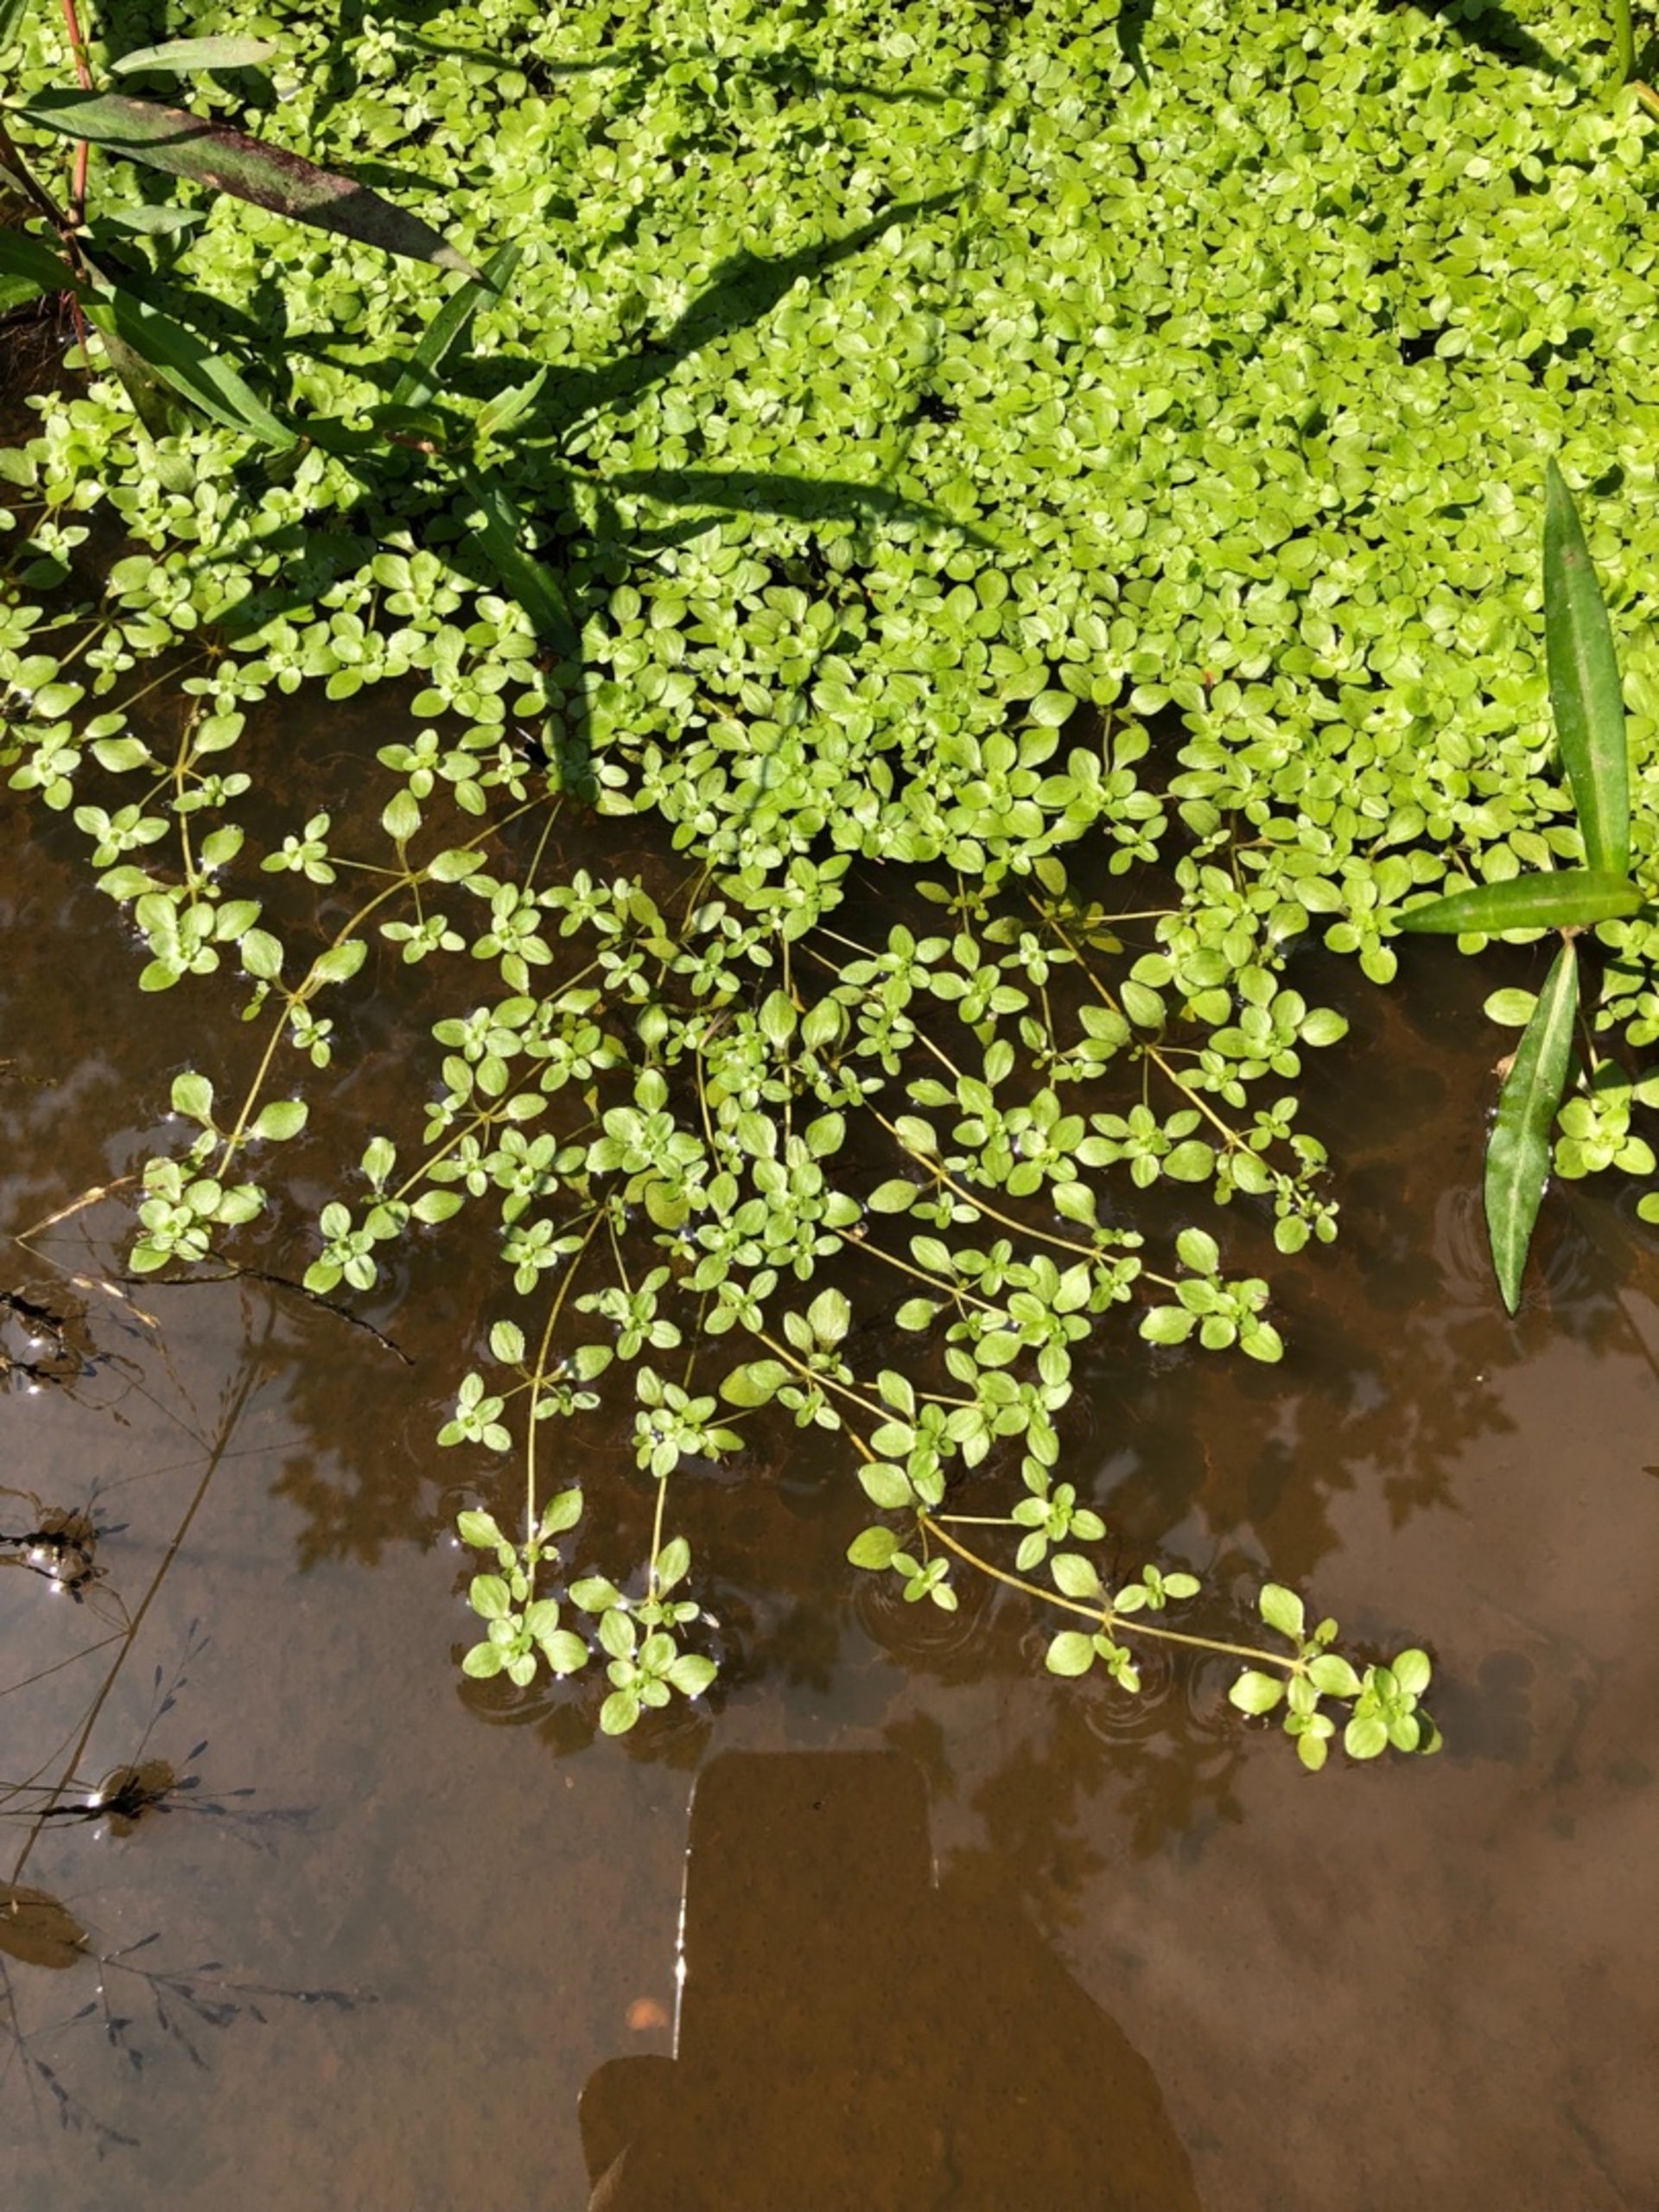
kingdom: Plantae
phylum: Tracheophyta
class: Magnoliopsida
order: Lamiales
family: Plantaginaceae
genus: Callitriche
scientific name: Callitriche
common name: Vandstjerneslægten
